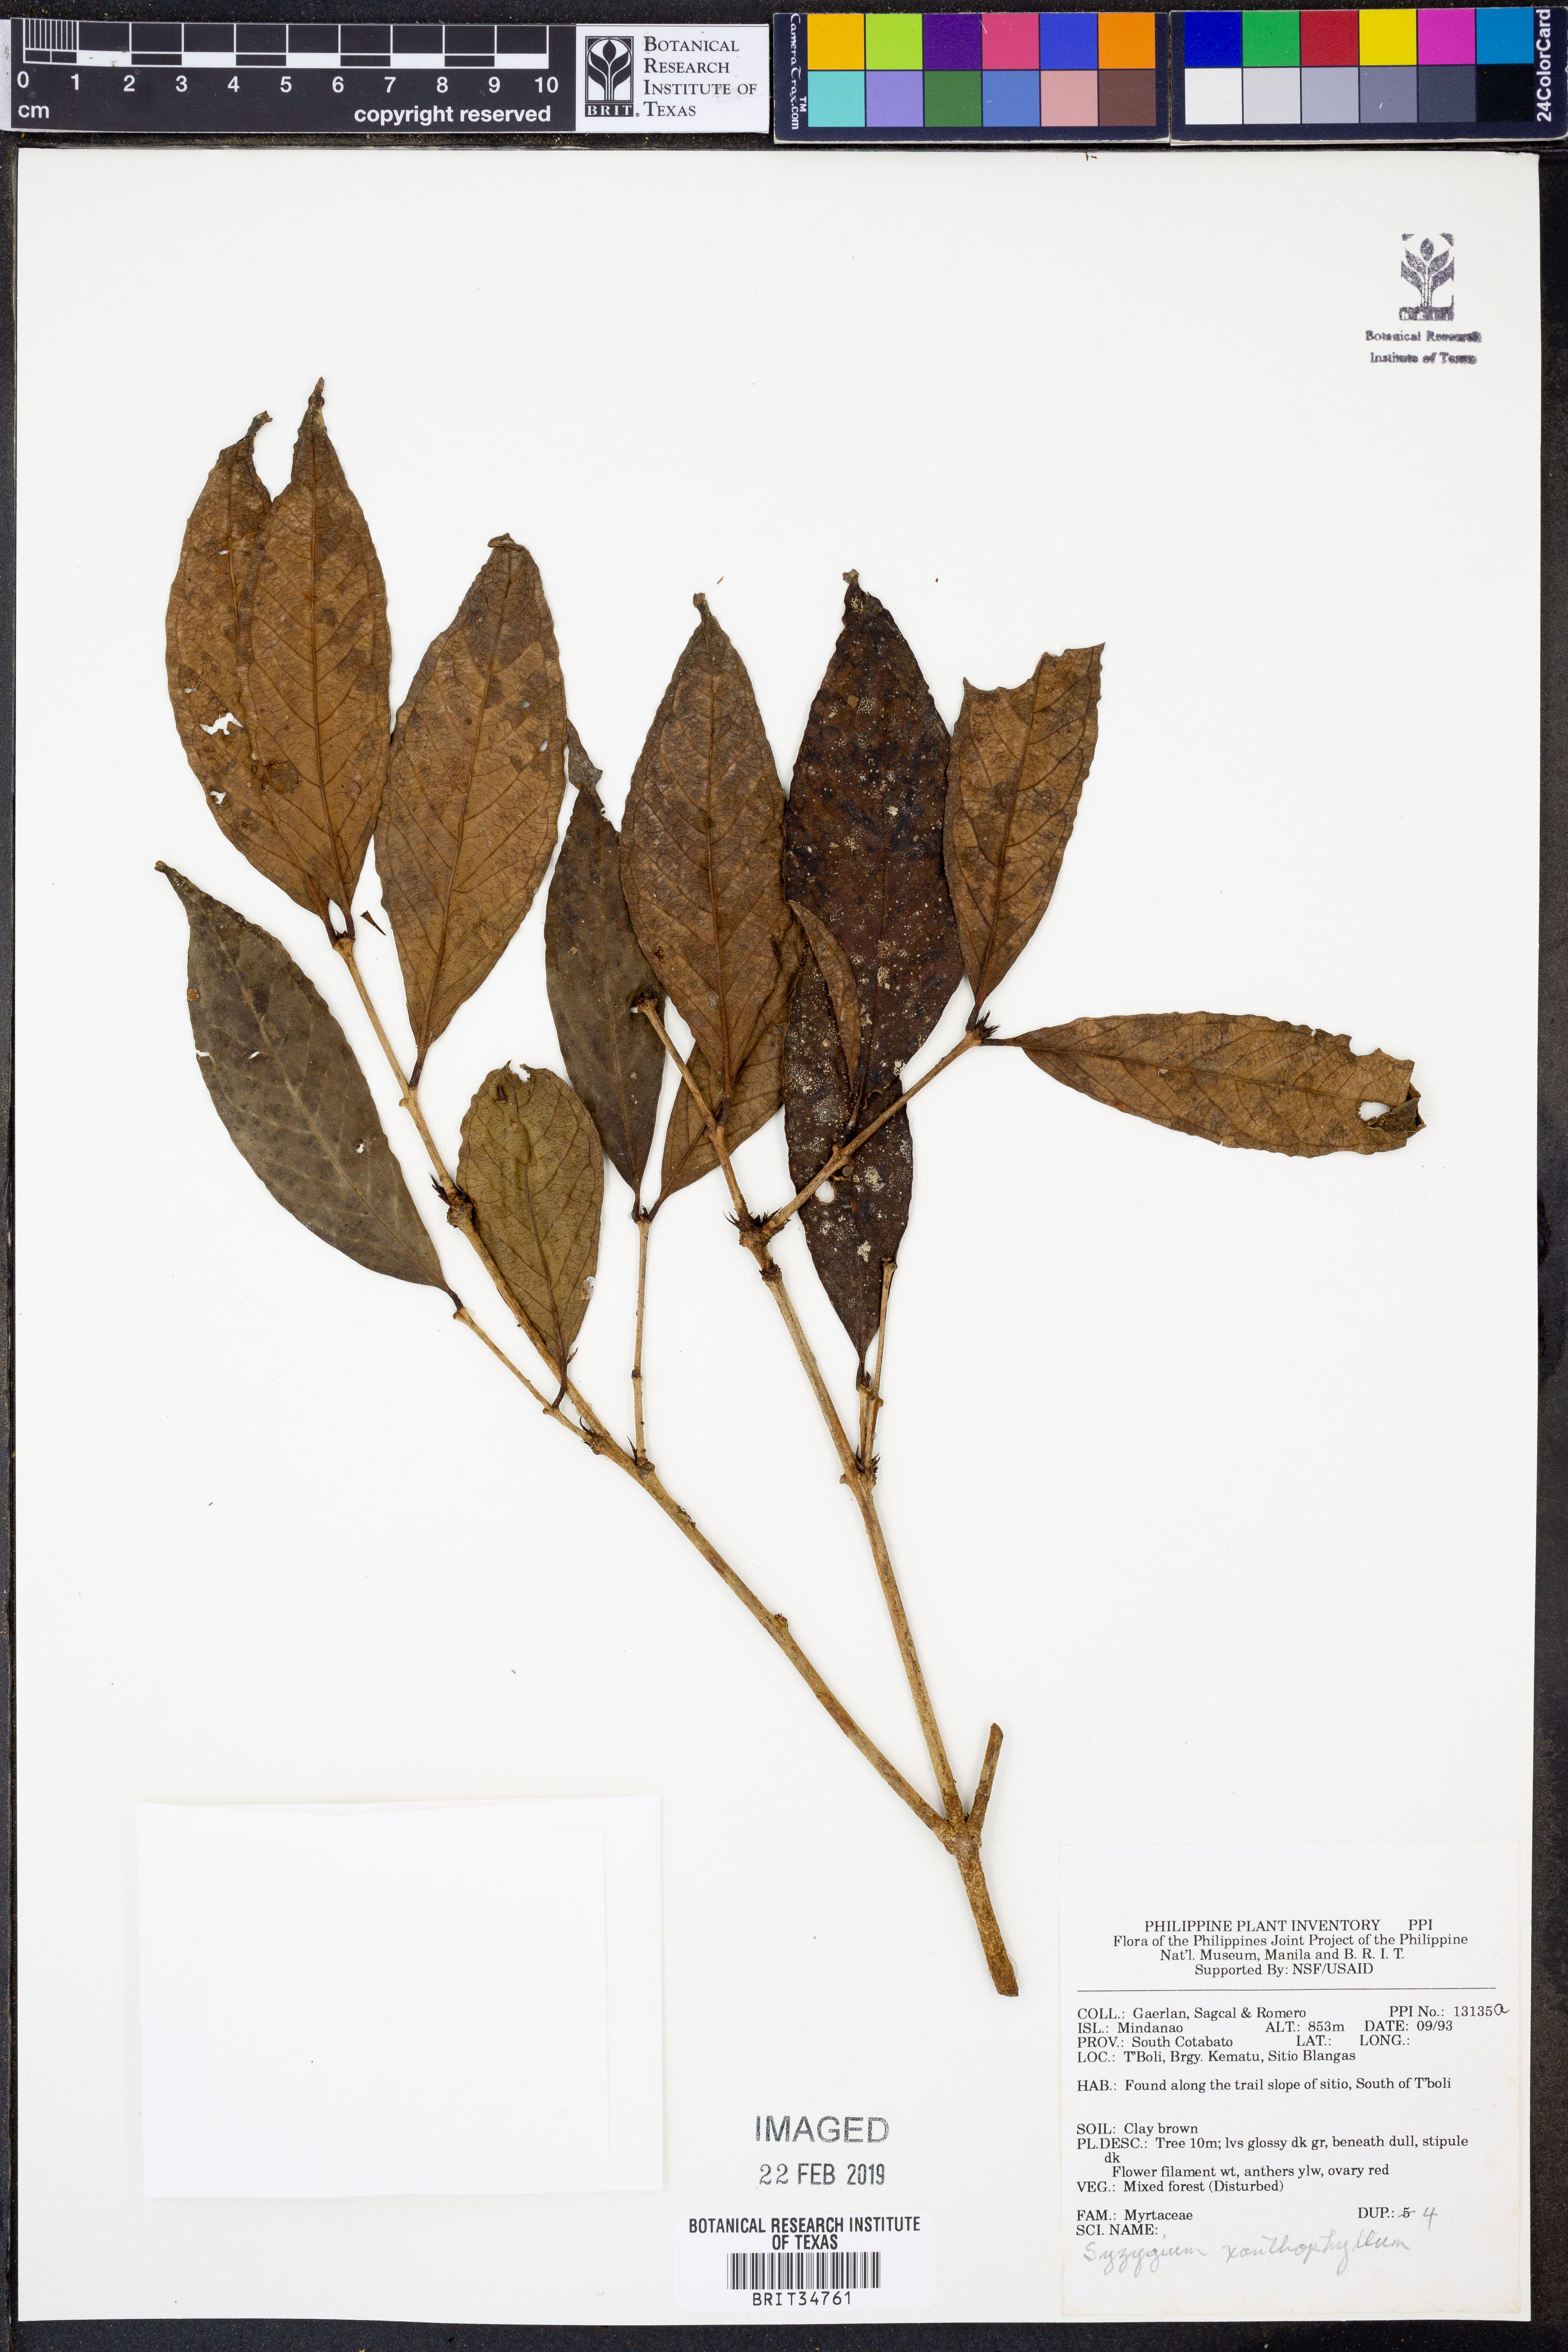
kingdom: Plantae
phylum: Tracheophyta
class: Magnoliopsida
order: Myrtales
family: Myrtaceae
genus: Syzygium
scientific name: Syzygium xanthophyllum
